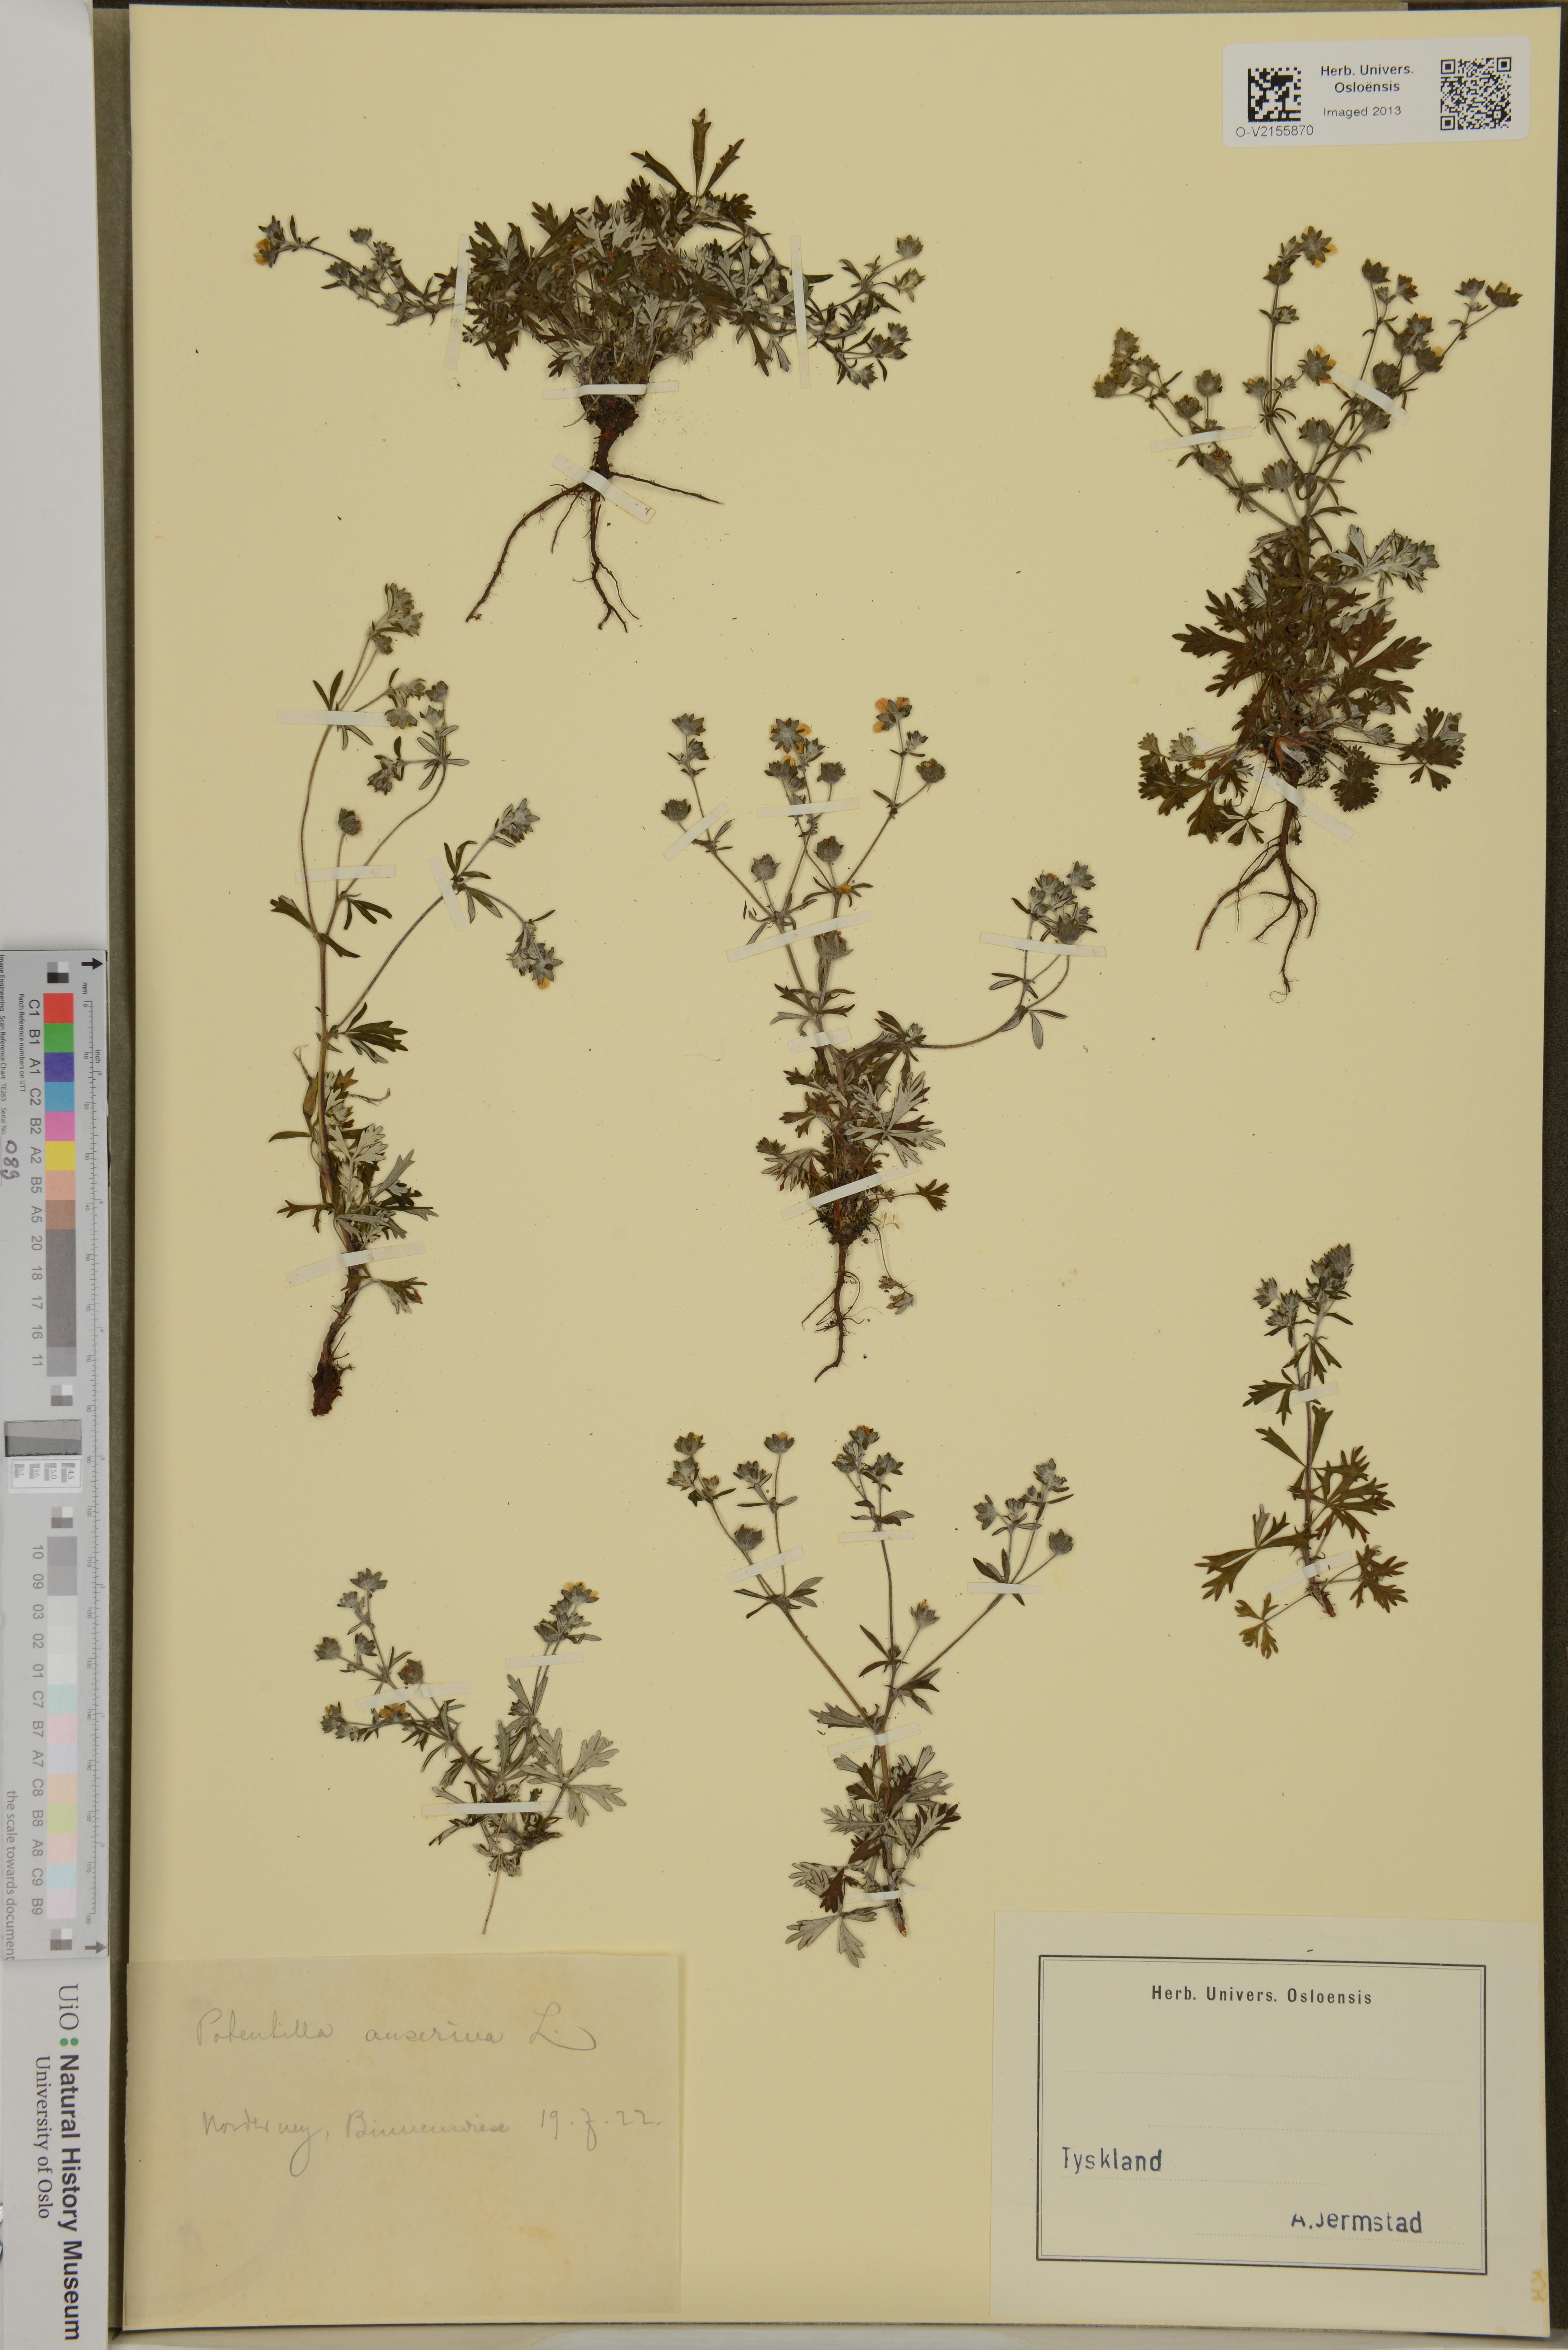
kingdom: Plantae
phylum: Tracheophyta
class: Magnoliopsida
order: Rosales
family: Rosaceae
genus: Argentina
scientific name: Argentina anserina
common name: Common silverweed
